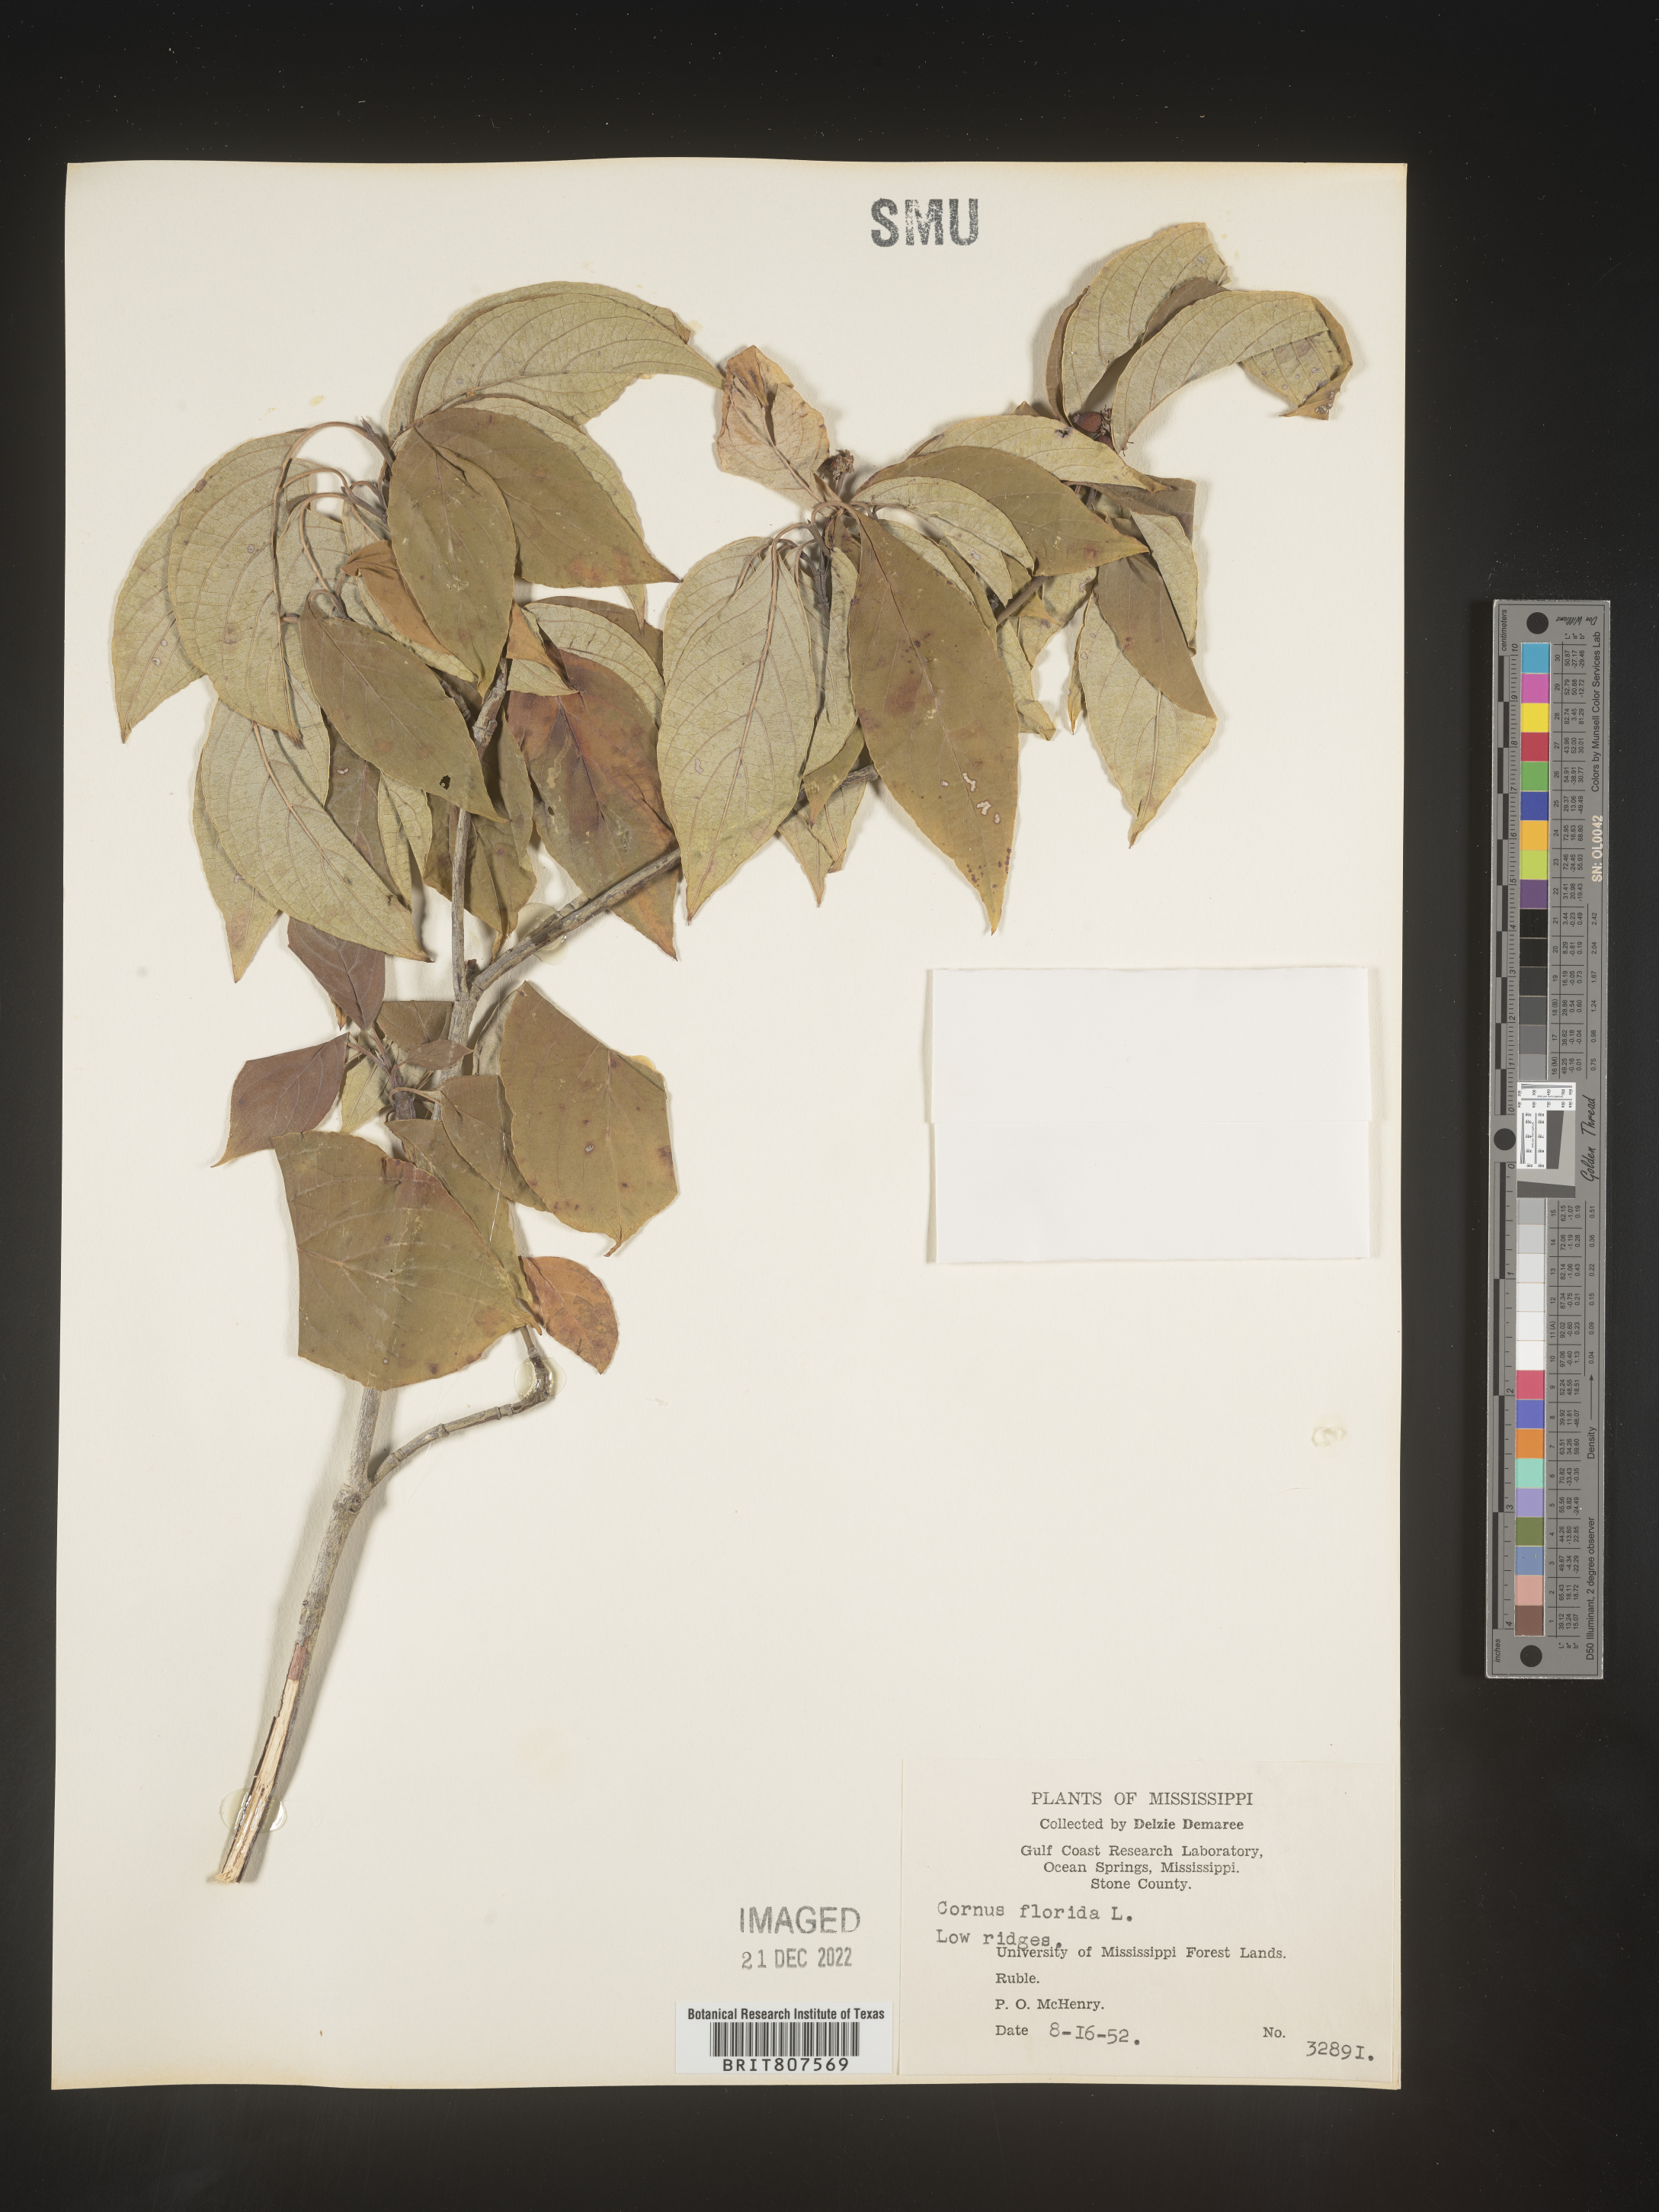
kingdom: Plantae
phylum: Tracheophyta
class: Magnoliopsida
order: Cornales
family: Cornaceae
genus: Cornus
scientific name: Cornus florida
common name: Flowering dogwood
